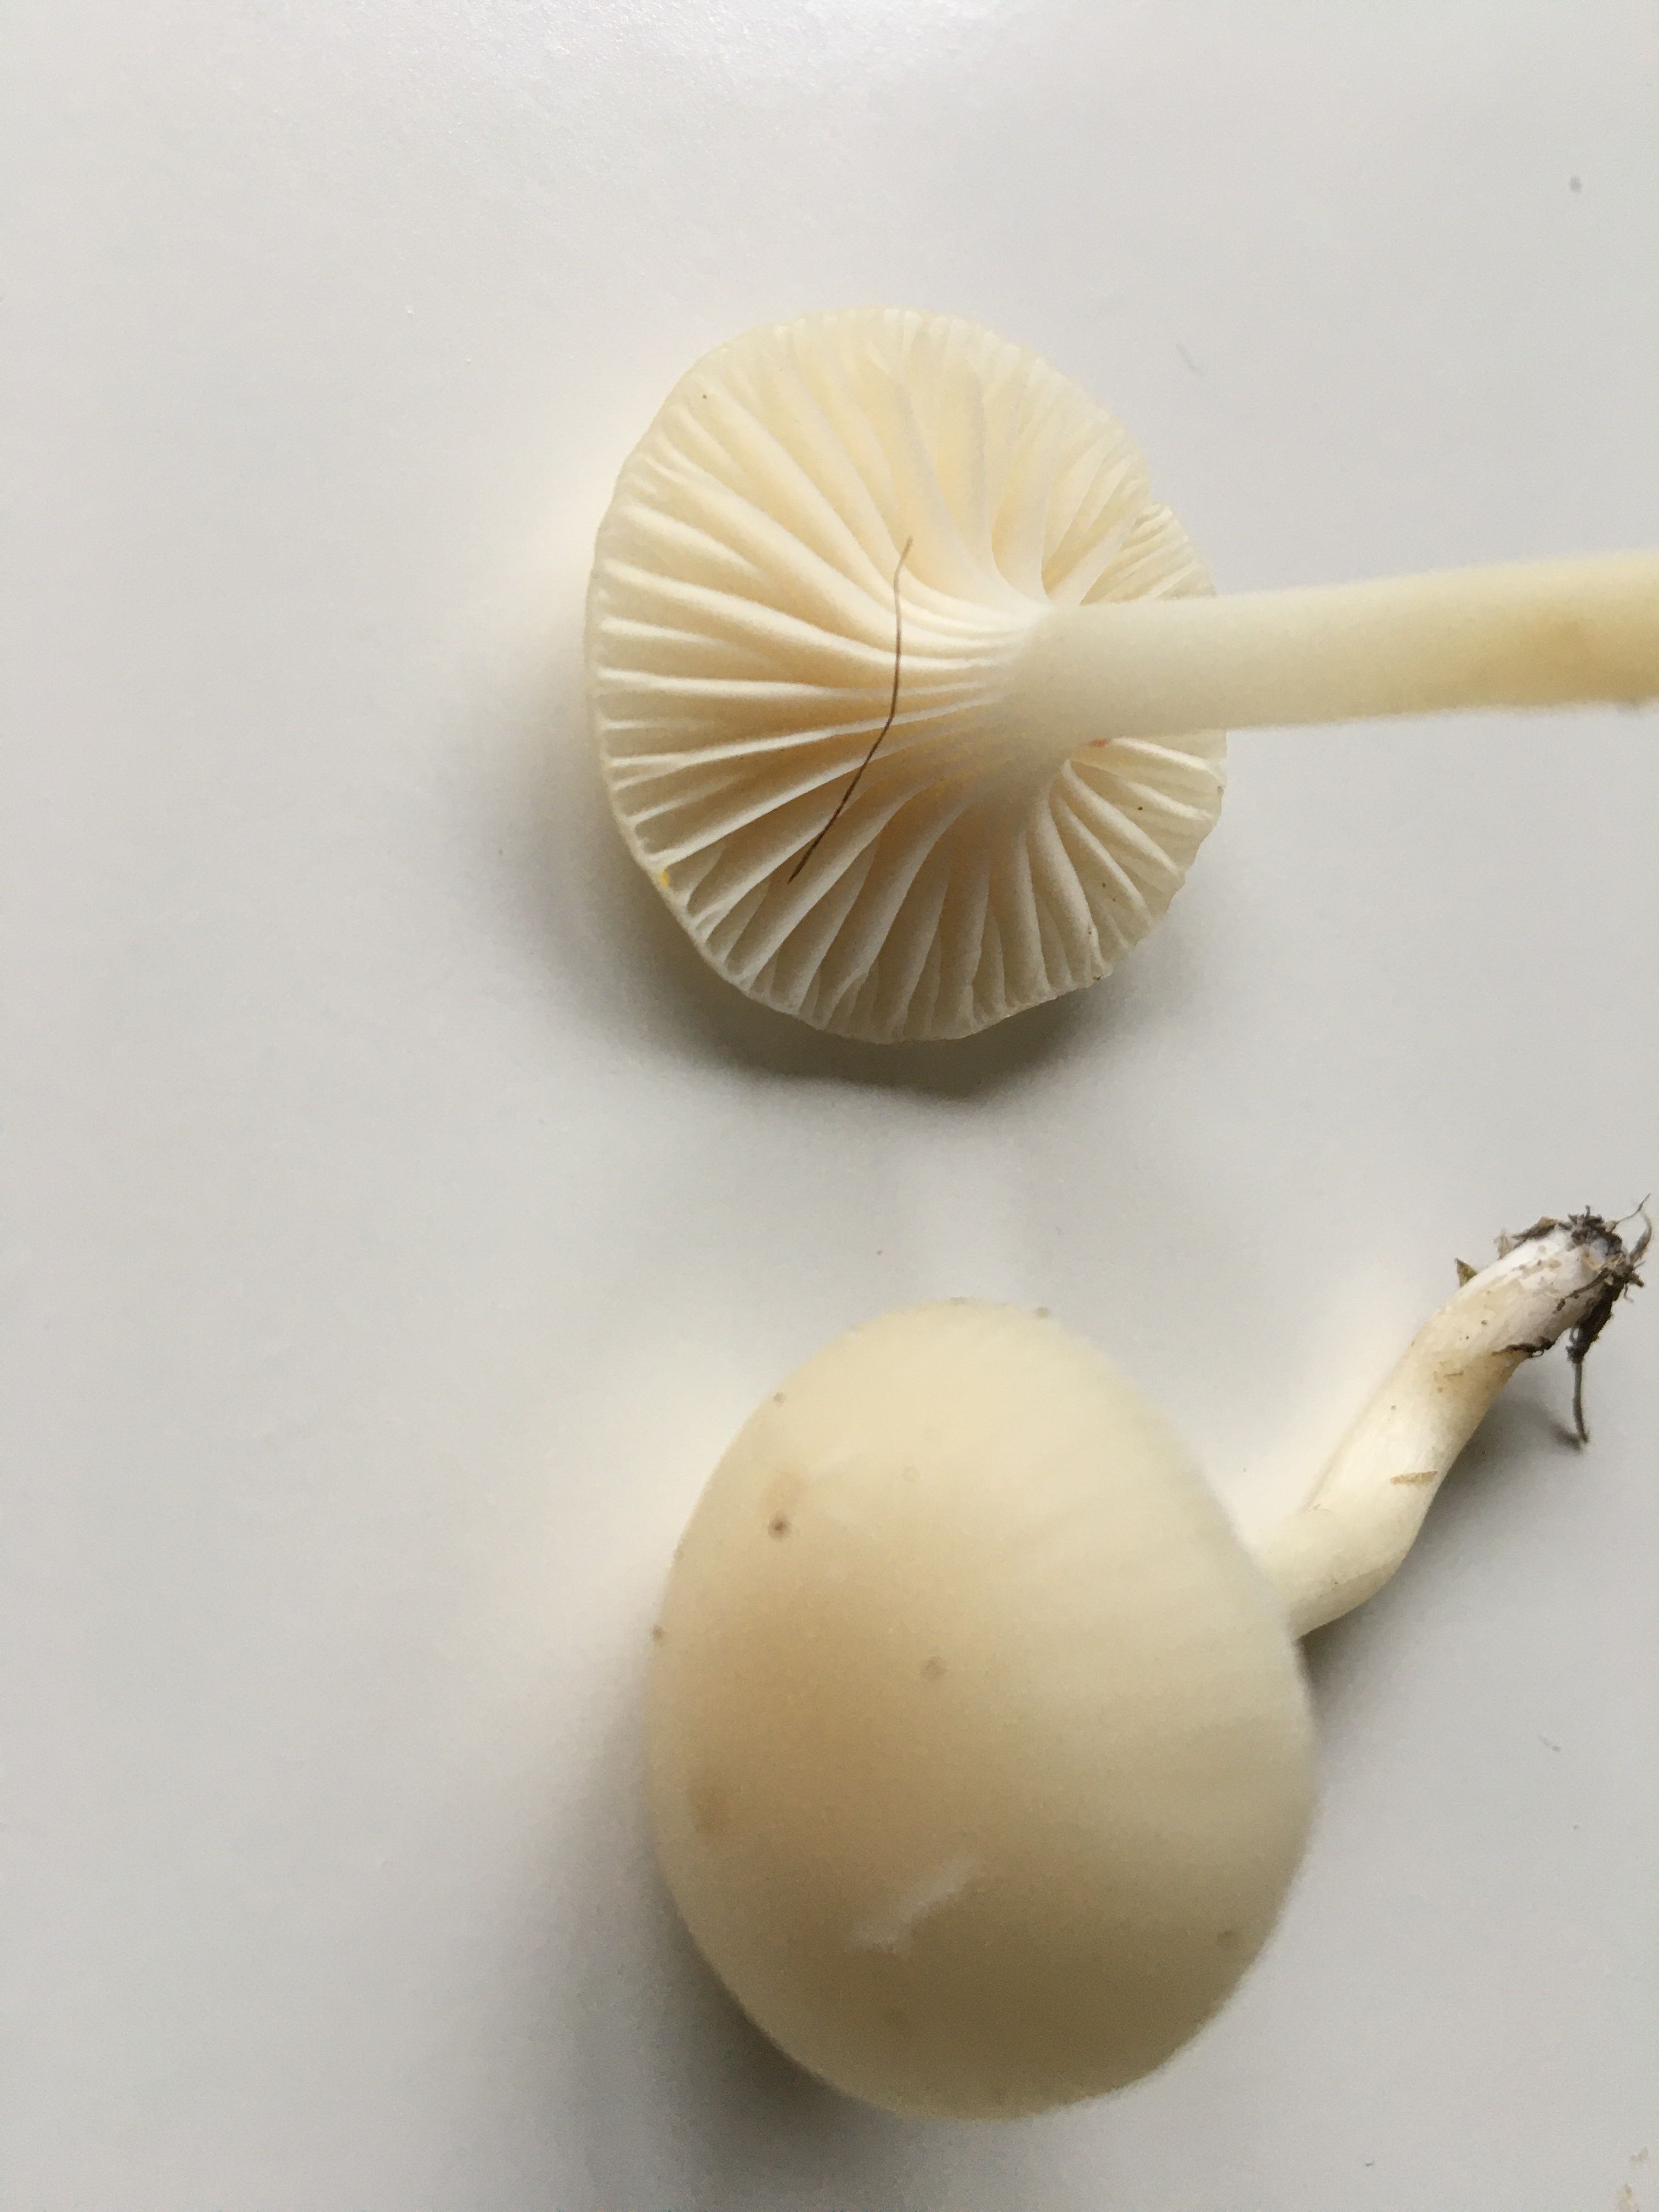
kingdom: Fungi
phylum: Basidiomycota
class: Agaricomycetes
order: Agaricales
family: Hygrophoraceae
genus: Cuphophyllus
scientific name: Cuphophyllus virgineus
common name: snehvid vokshat
